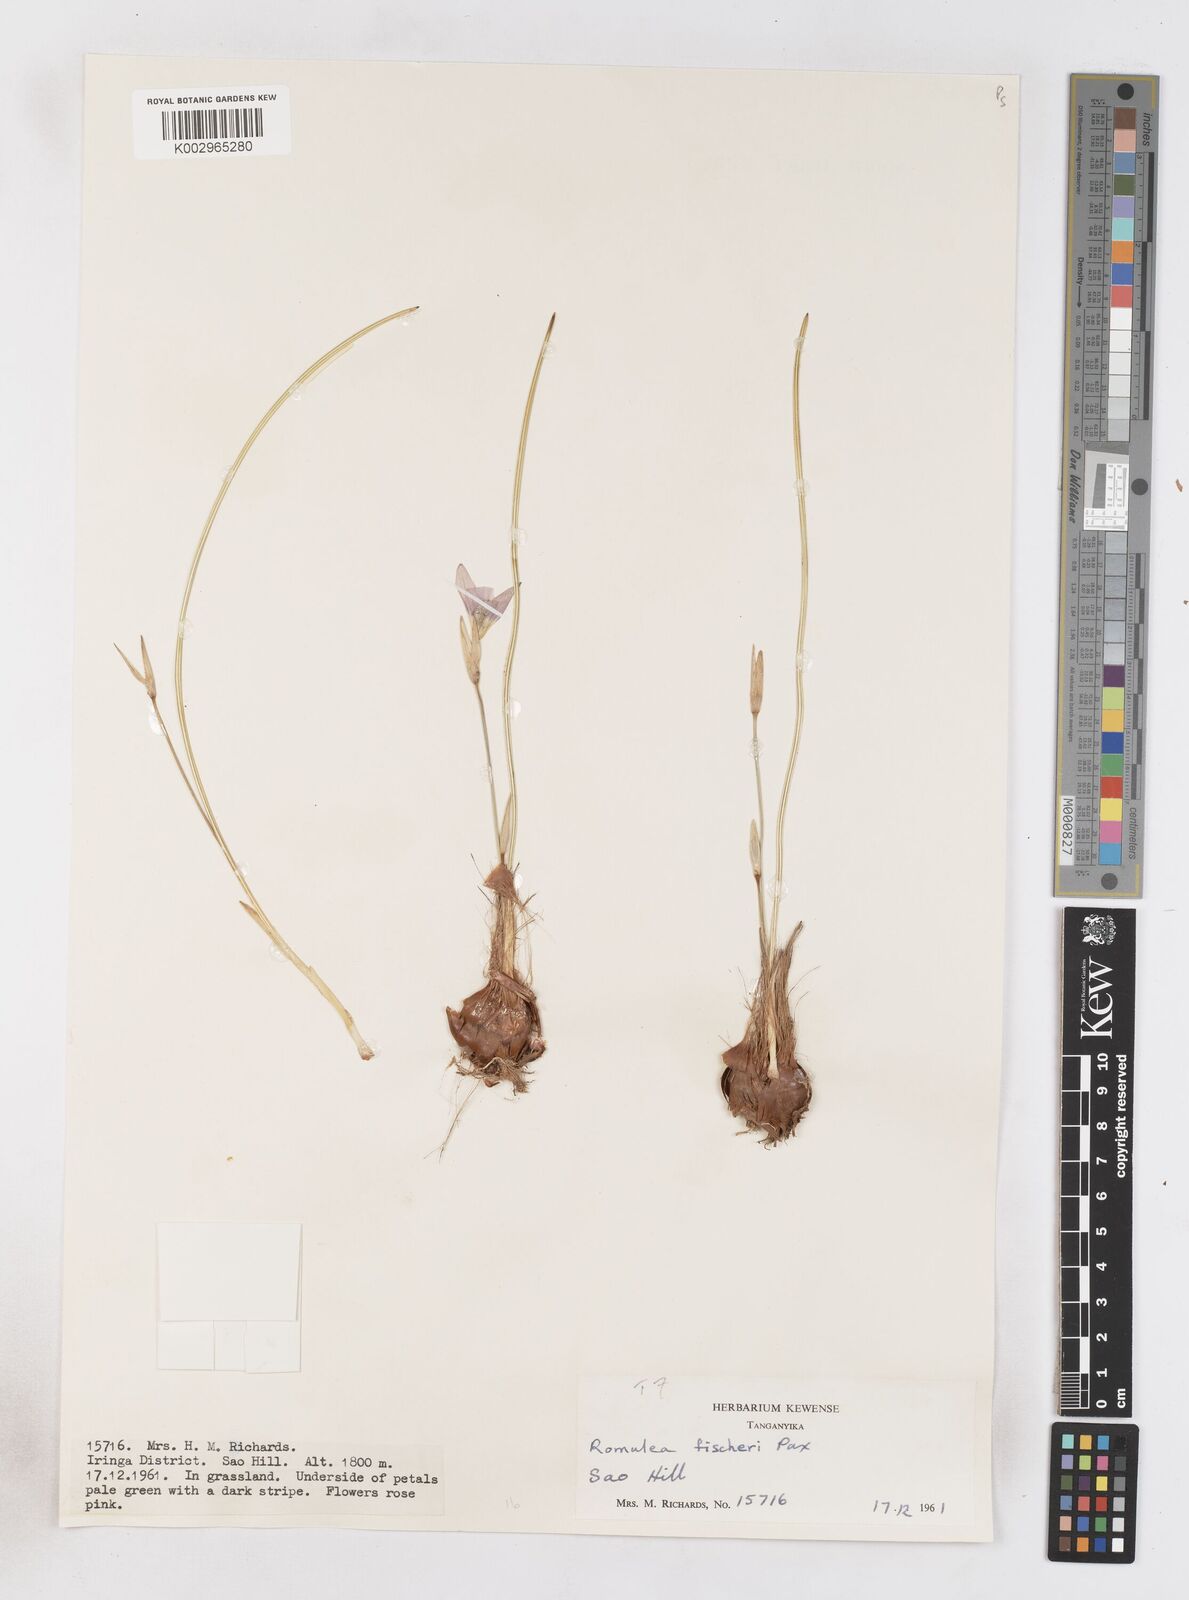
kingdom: Plantae
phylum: Tracheophyta
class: Liliopsida
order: Asparagales
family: Iridaceae
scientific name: Iridaceae
